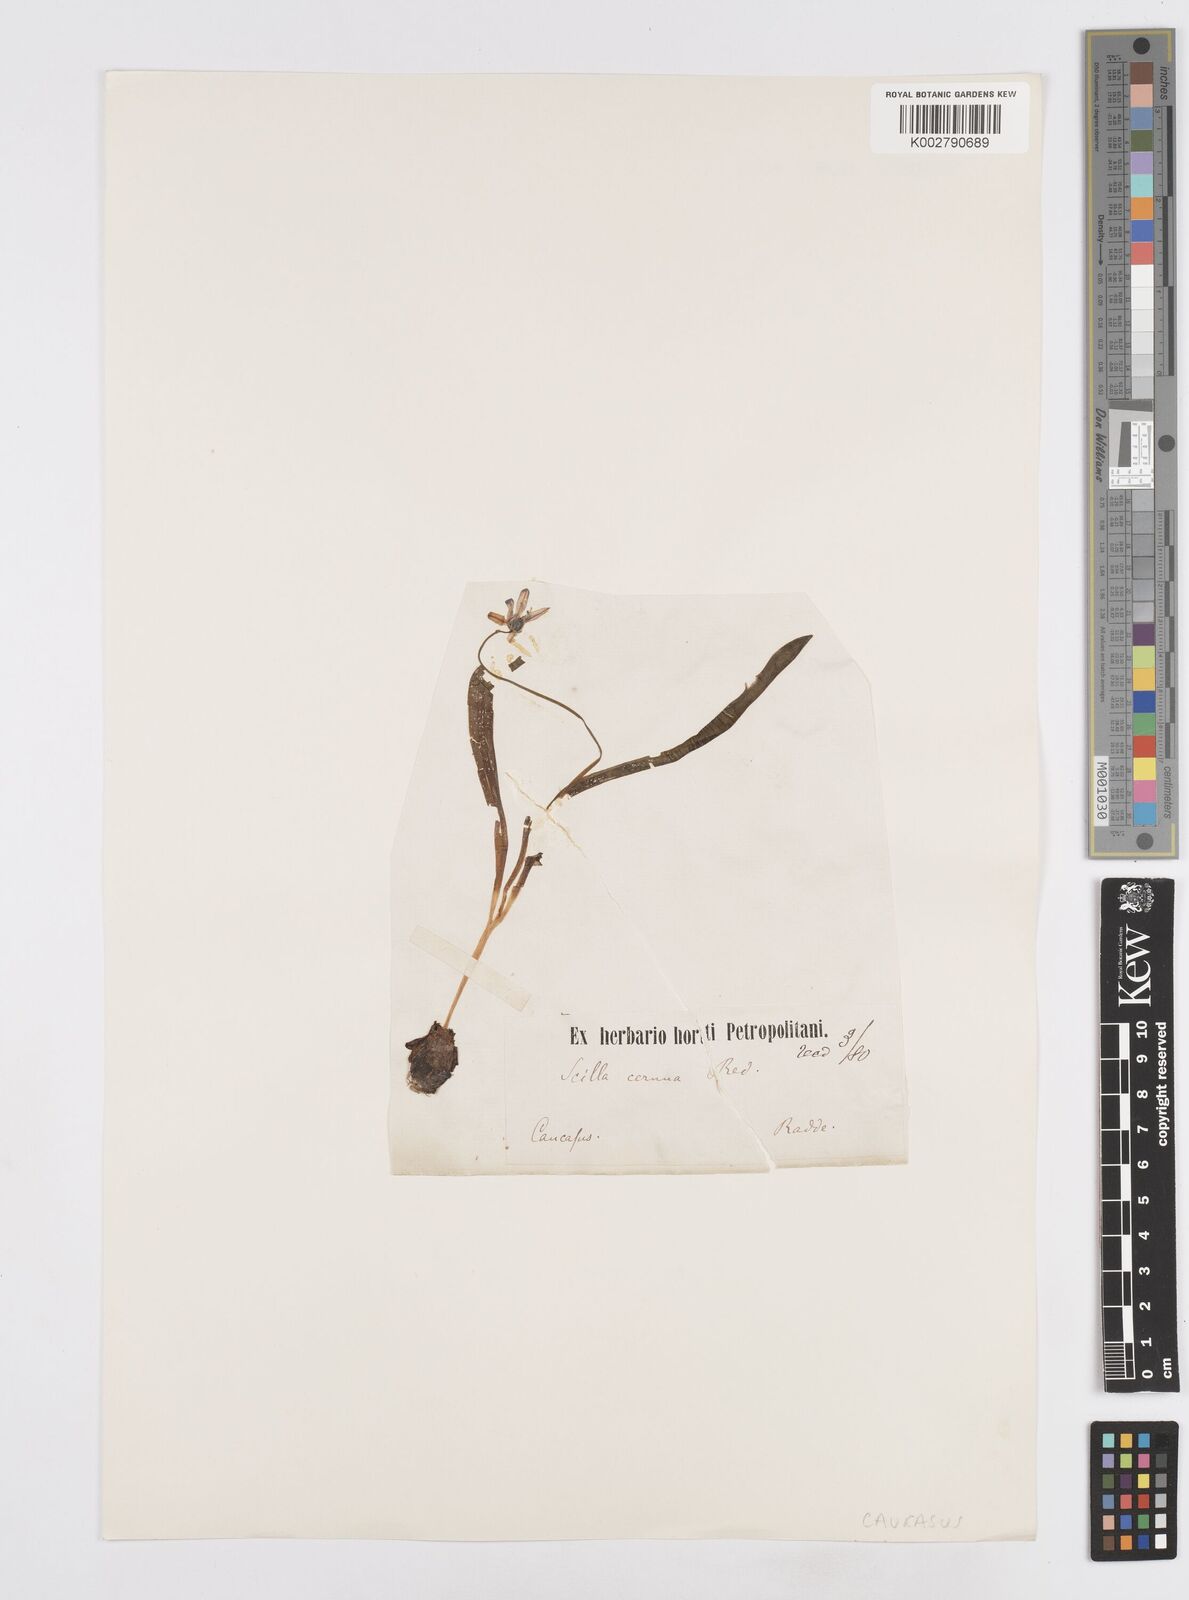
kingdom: Plantae
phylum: Tracheophyta
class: Liliopsida
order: Asparagales
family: Asparagaceae
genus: Scilla
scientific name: Scilla siberica
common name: Siberian squill
